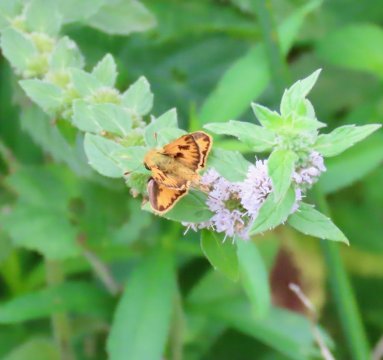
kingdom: Animalia
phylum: Arthropoda
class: Insecta
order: Lepidoptera
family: Hesperiidae
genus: Hylephila
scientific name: Hylephila phyleus
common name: Fiery Skipper
